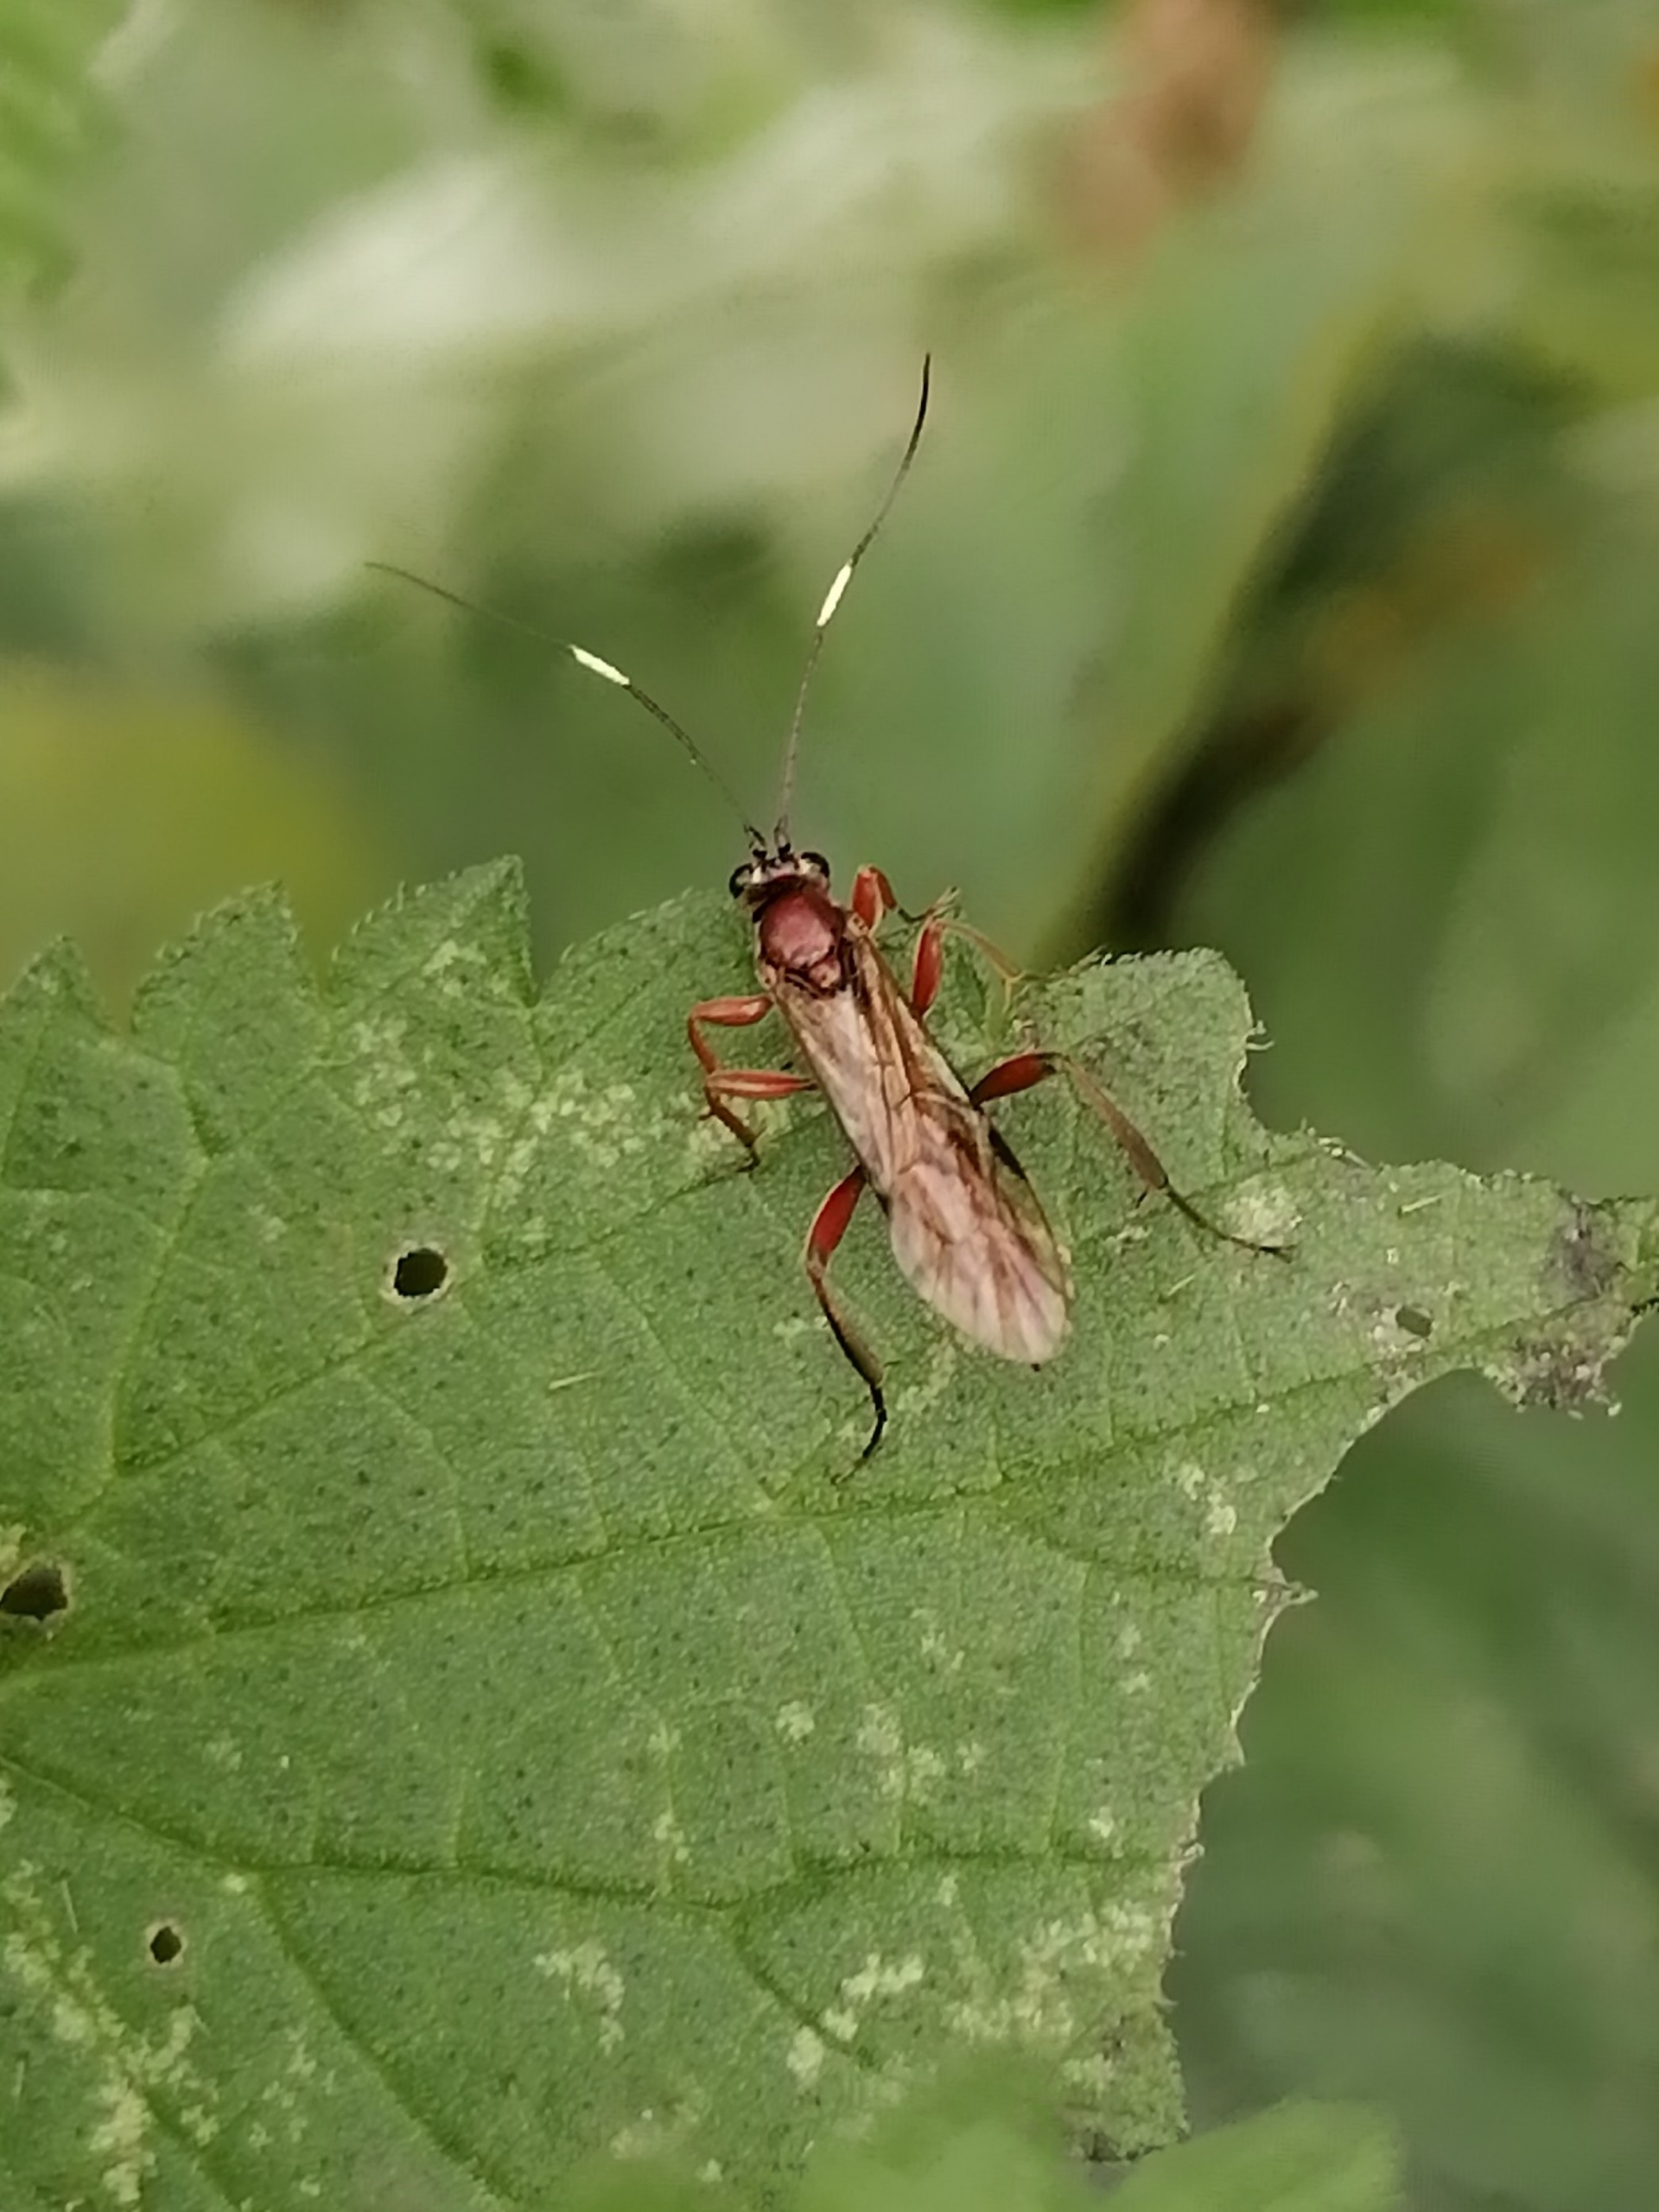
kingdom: Animalia
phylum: Arthropoda
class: Insecta
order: Hymenoptera
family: Ichneumonidae
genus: Platylabus
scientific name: Platylabus rufus
